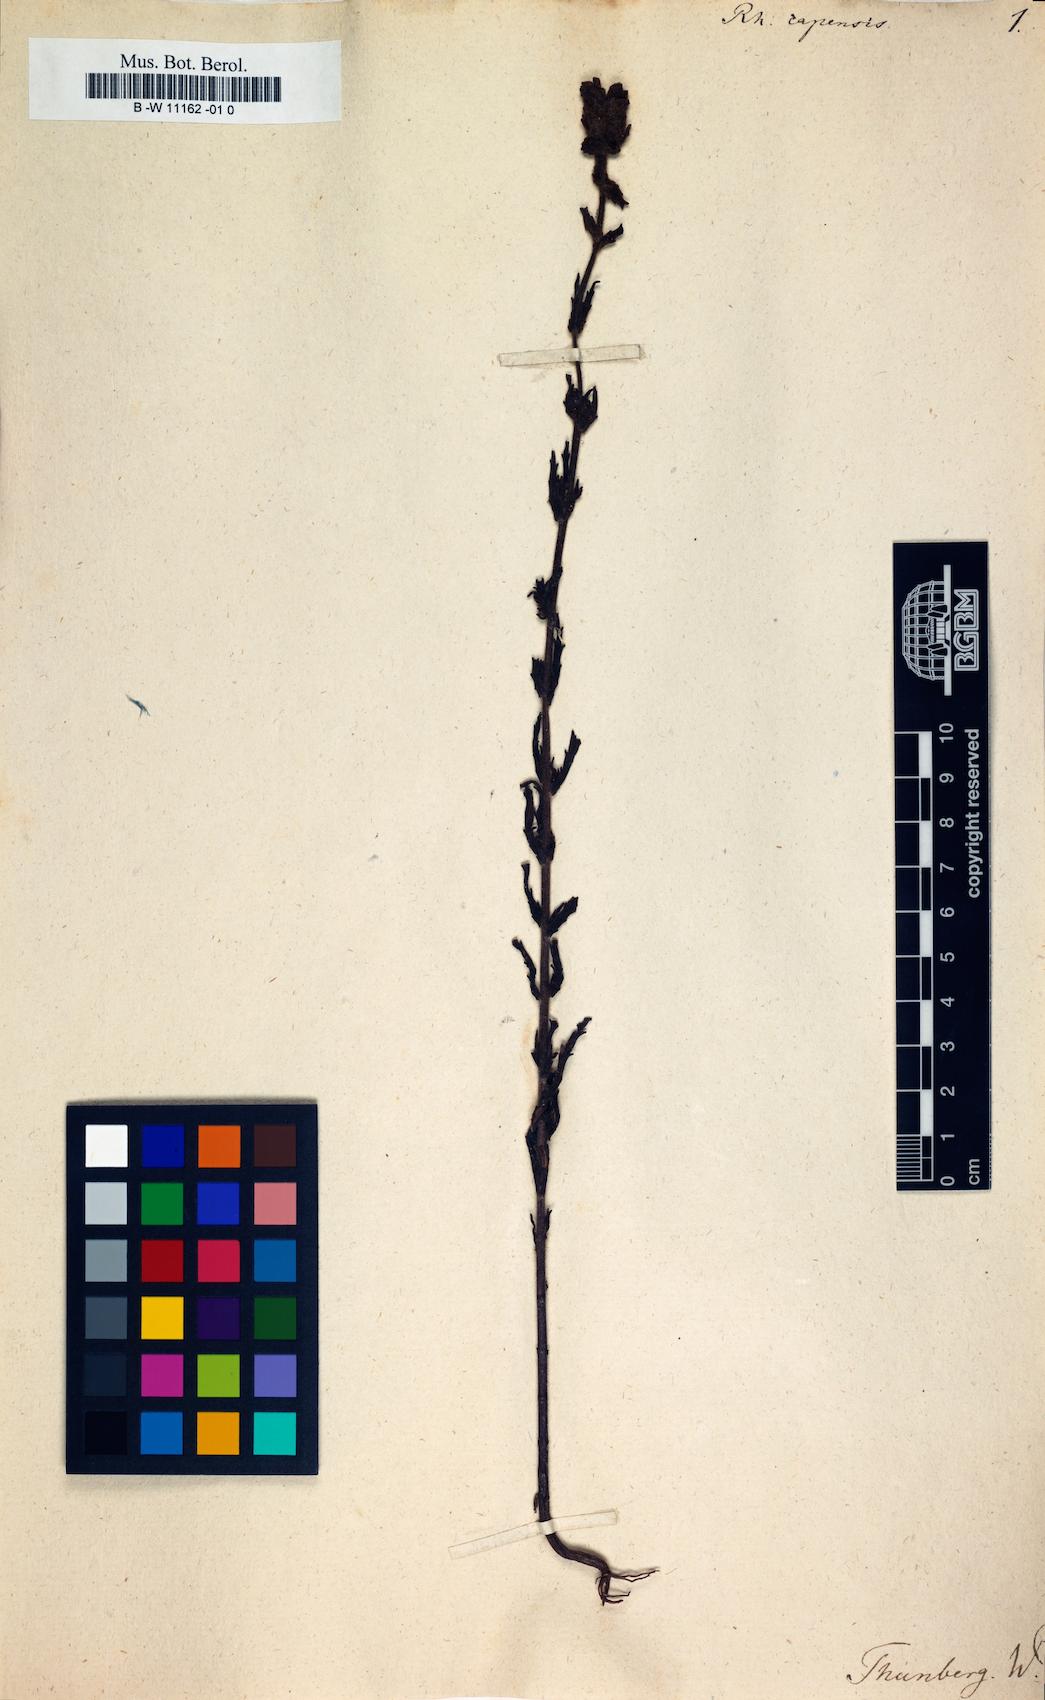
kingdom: Plantae
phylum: Tracheophyta
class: Magnoliopsida
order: Lamiales
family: Orobanchaceae
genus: Bellardia
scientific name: Bellardia trixago
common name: Mediterranean lineseed
